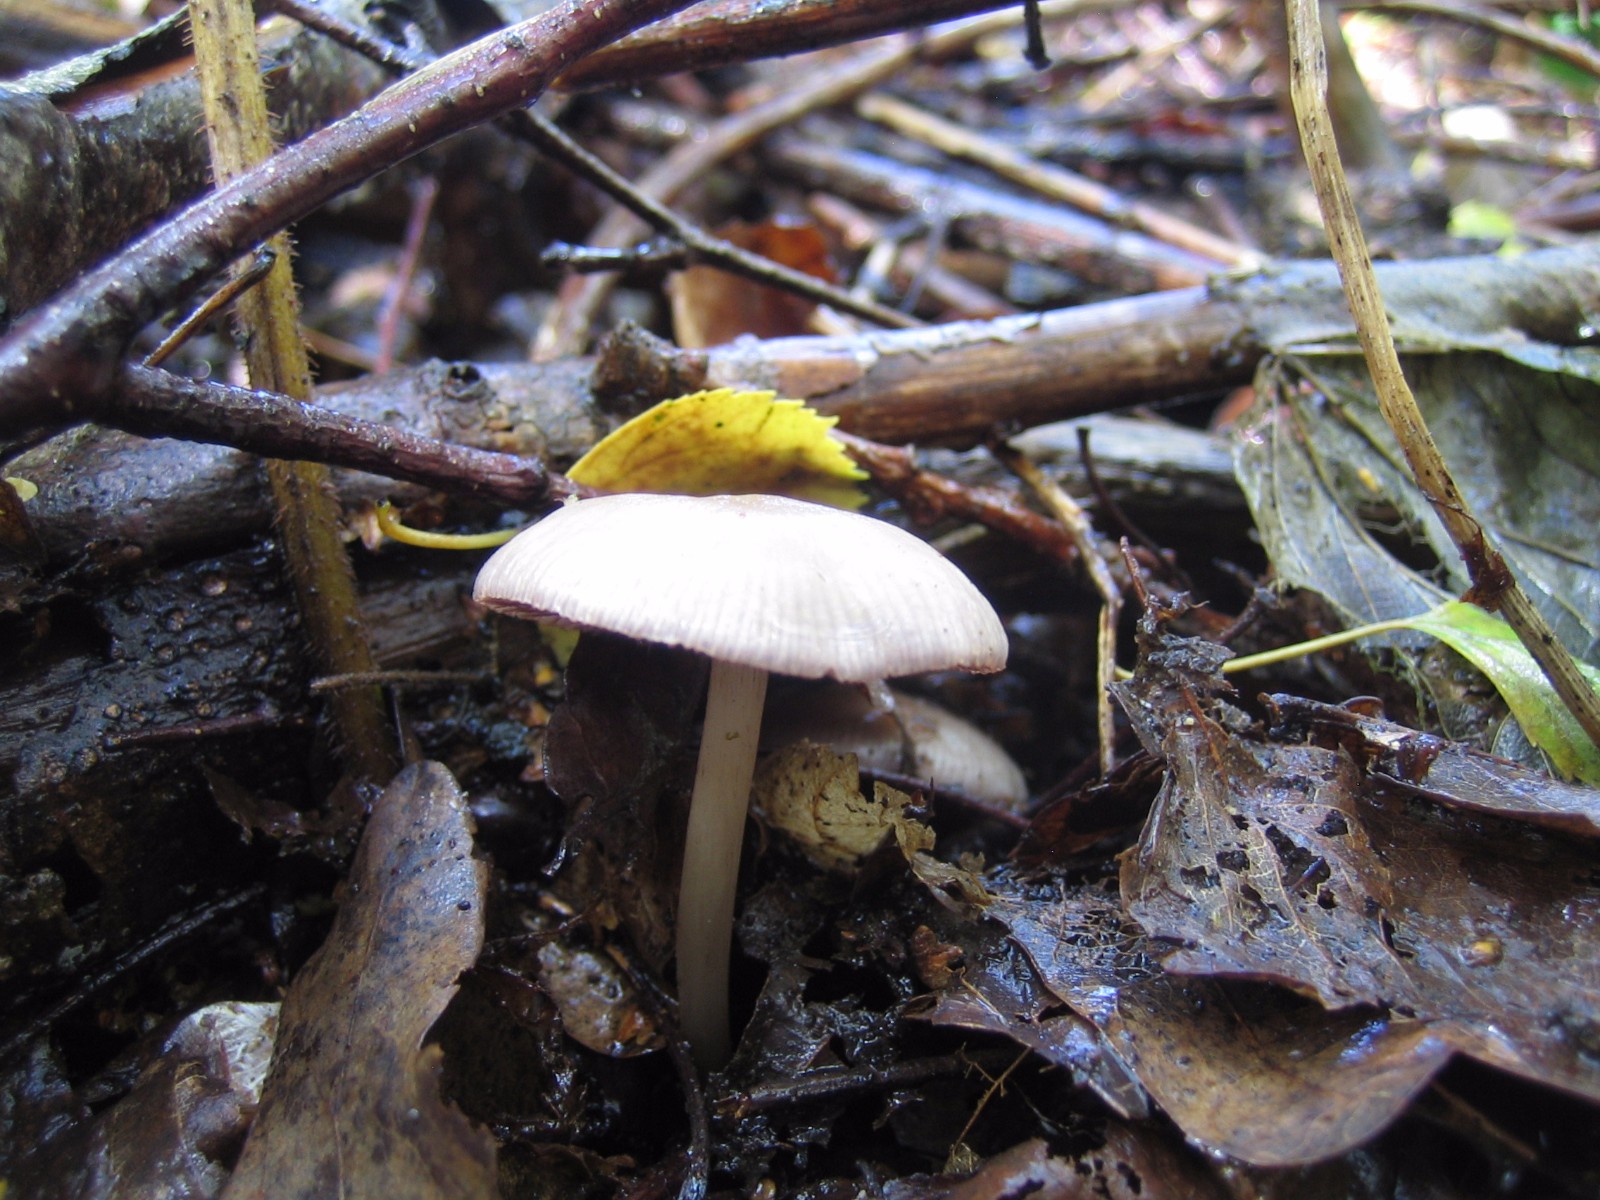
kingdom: Fungi
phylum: Basidiomycota
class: Agaricomycetes
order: Agaricales
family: Mycenaceae
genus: Mycena
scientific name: Mycena pelianthina
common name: mørkbladet huesvamp
